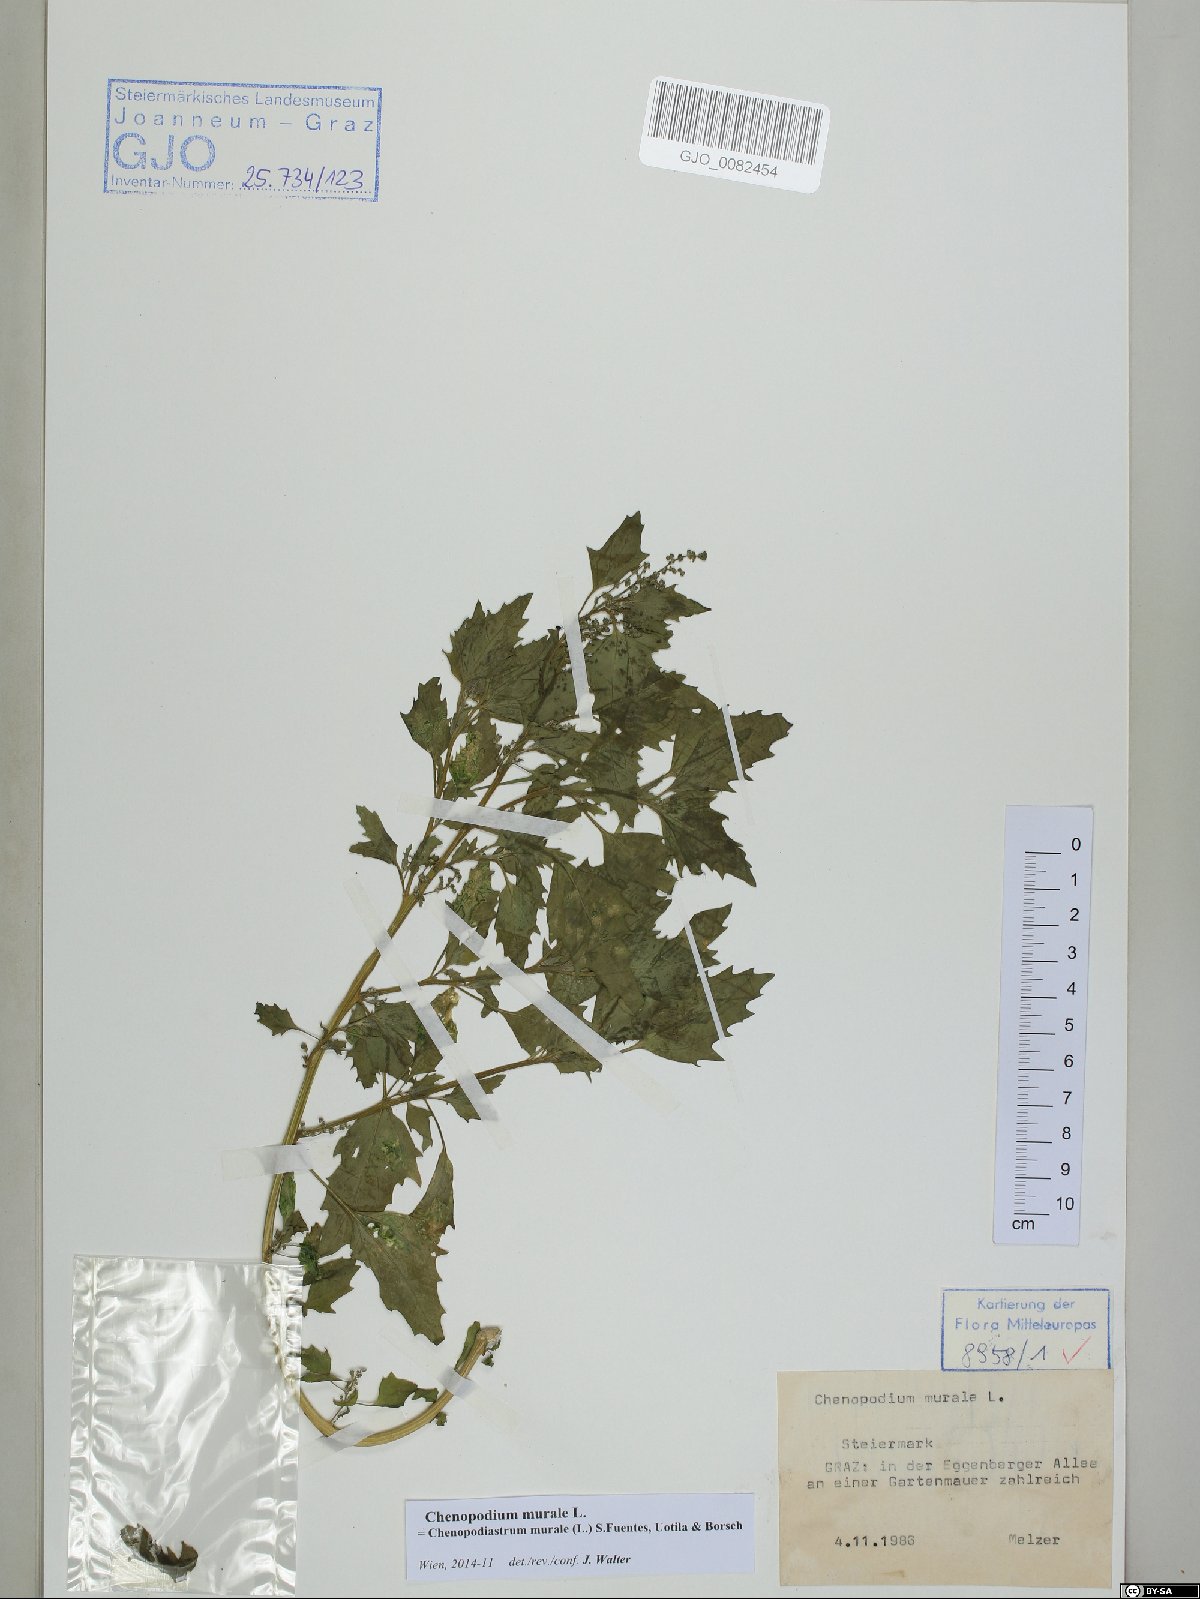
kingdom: Plantae
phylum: Tracheophyta
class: Magnoliopsida
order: Caryophyllales
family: Amaranthaceae
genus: Chenopodiastrum
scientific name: Chenopodiastrum murale
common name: Sowbane
